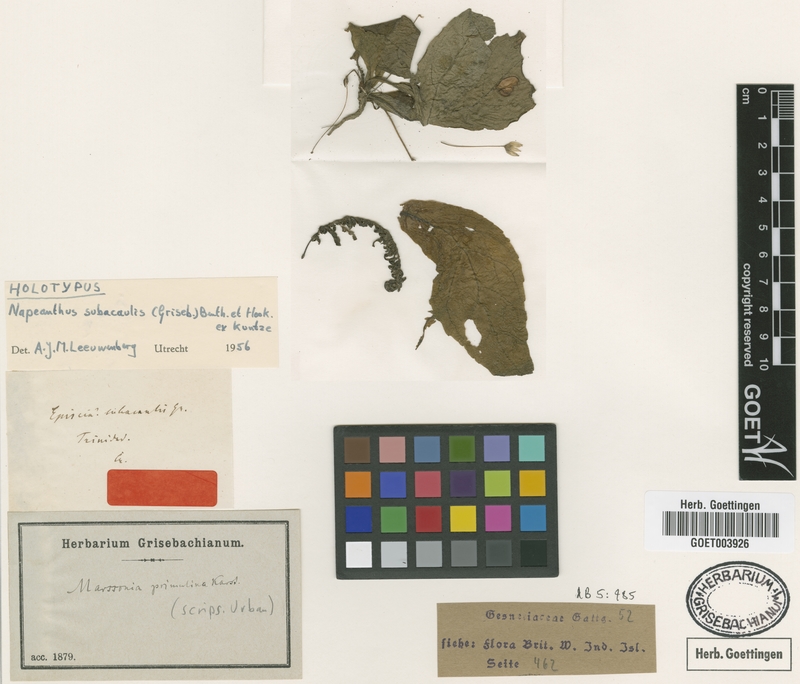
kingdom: Plantae
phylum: Tracheophyta
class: Magnoliopsida
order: Lamiales
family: Gesneriaceae
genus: Napeanthus
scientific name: Napeanthus subacaulis
